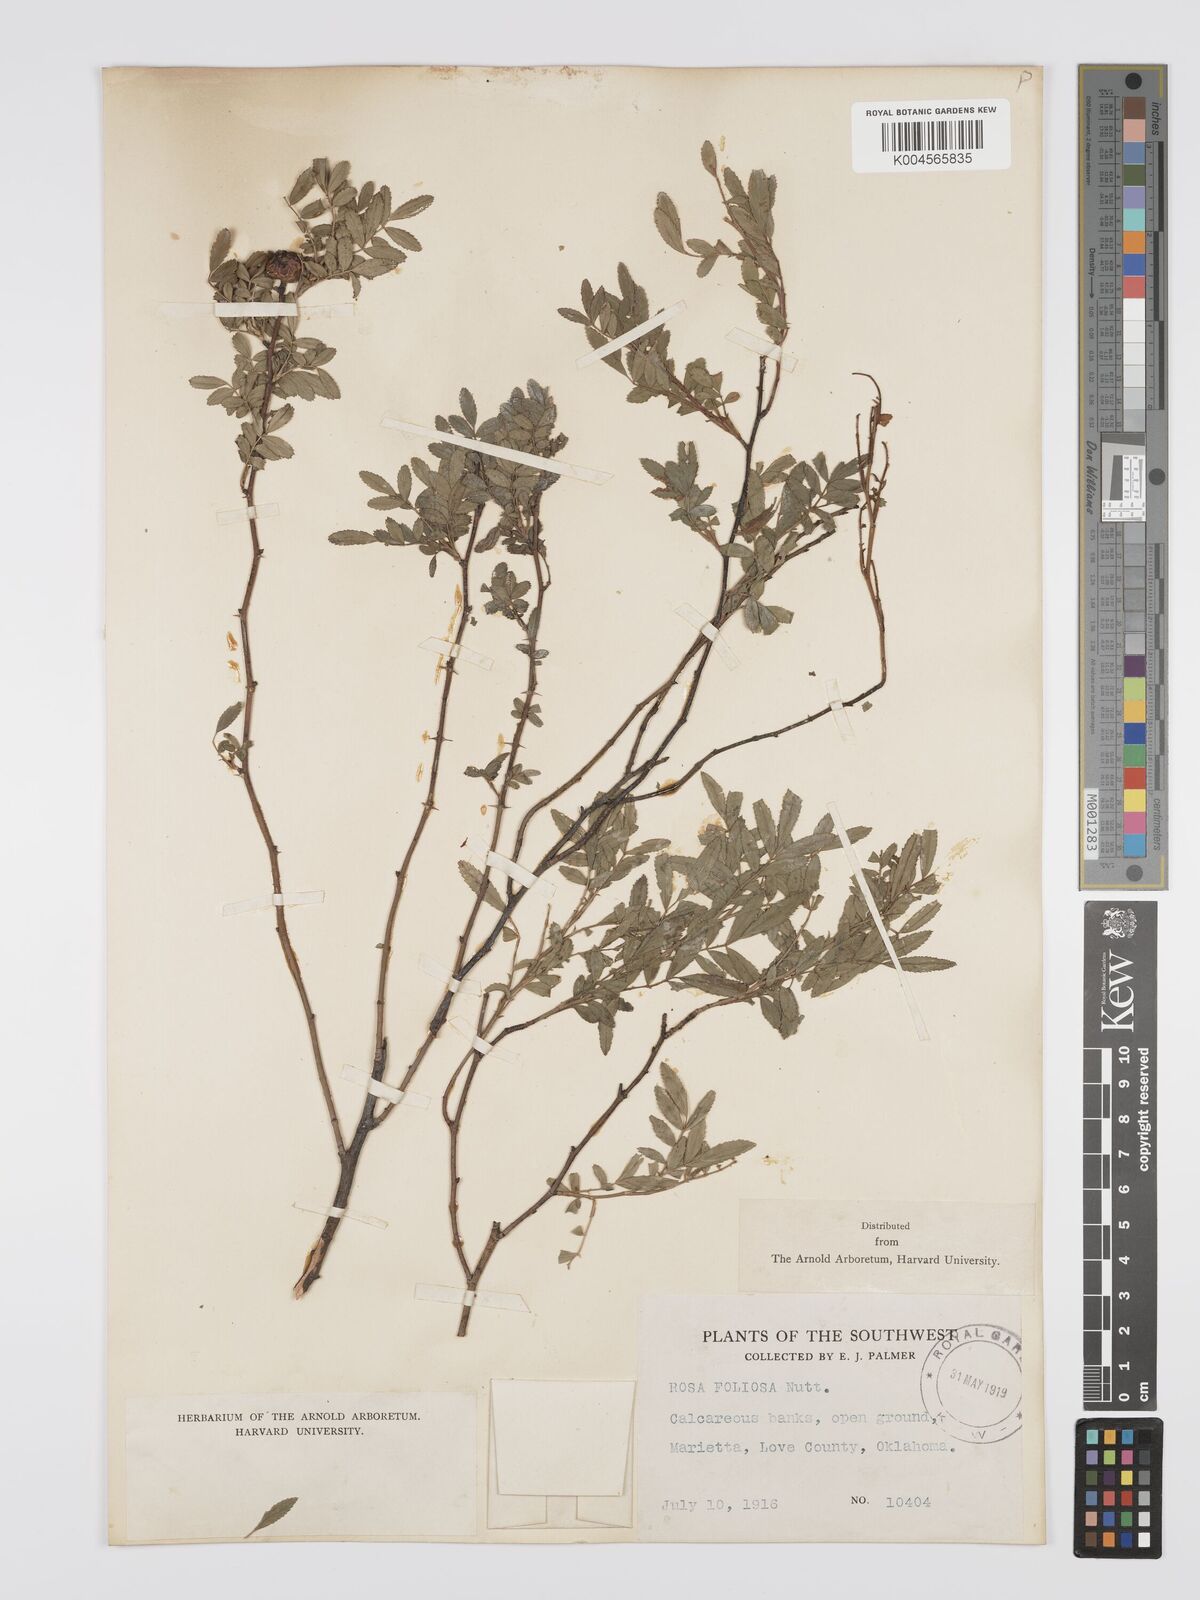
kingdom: Plantae
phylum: Tracheophyta
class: Magnoliopsida
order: Rosales
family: Rosaceae
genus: Rosa
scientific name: Rosa foliolosa
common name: White prairie rose
